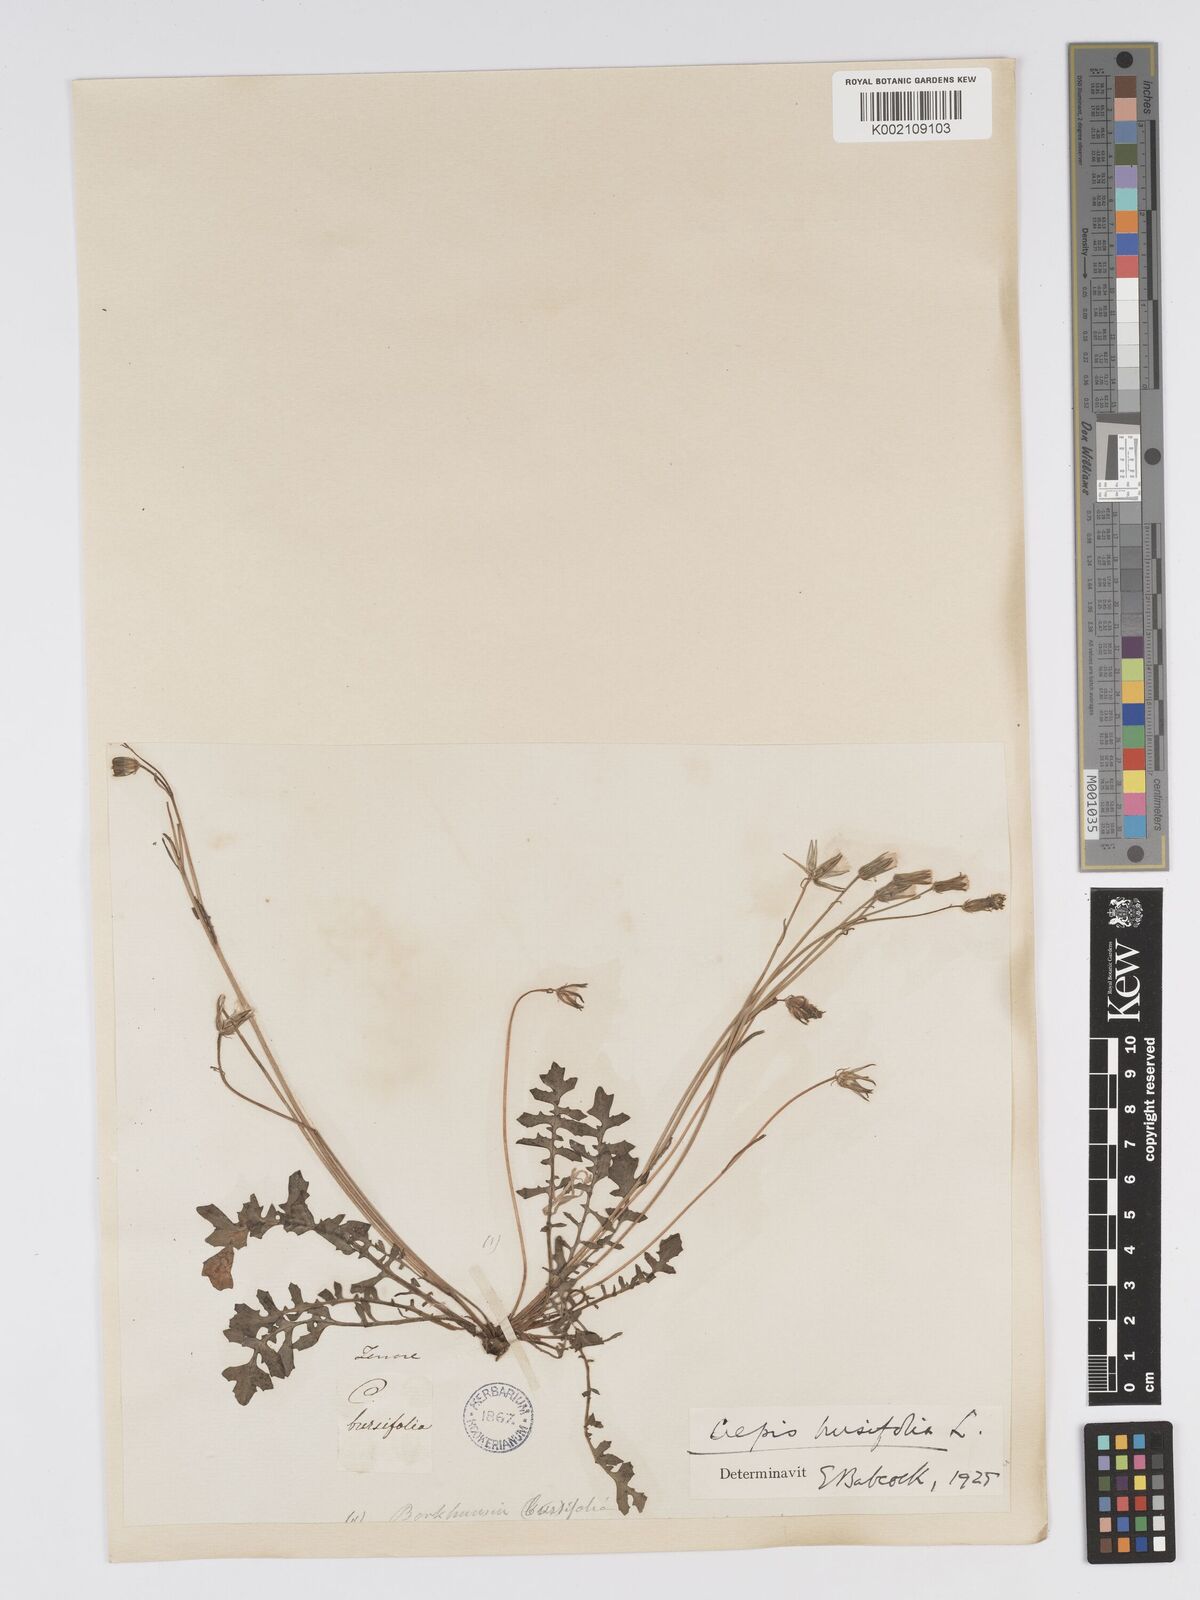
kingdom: Plantae
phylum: Tracheophyta
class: Magnoliopsida
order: Asterales
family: Asteraceae
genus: Crepis
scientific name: Crepis bursifolia
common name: Italian hawksbeard
